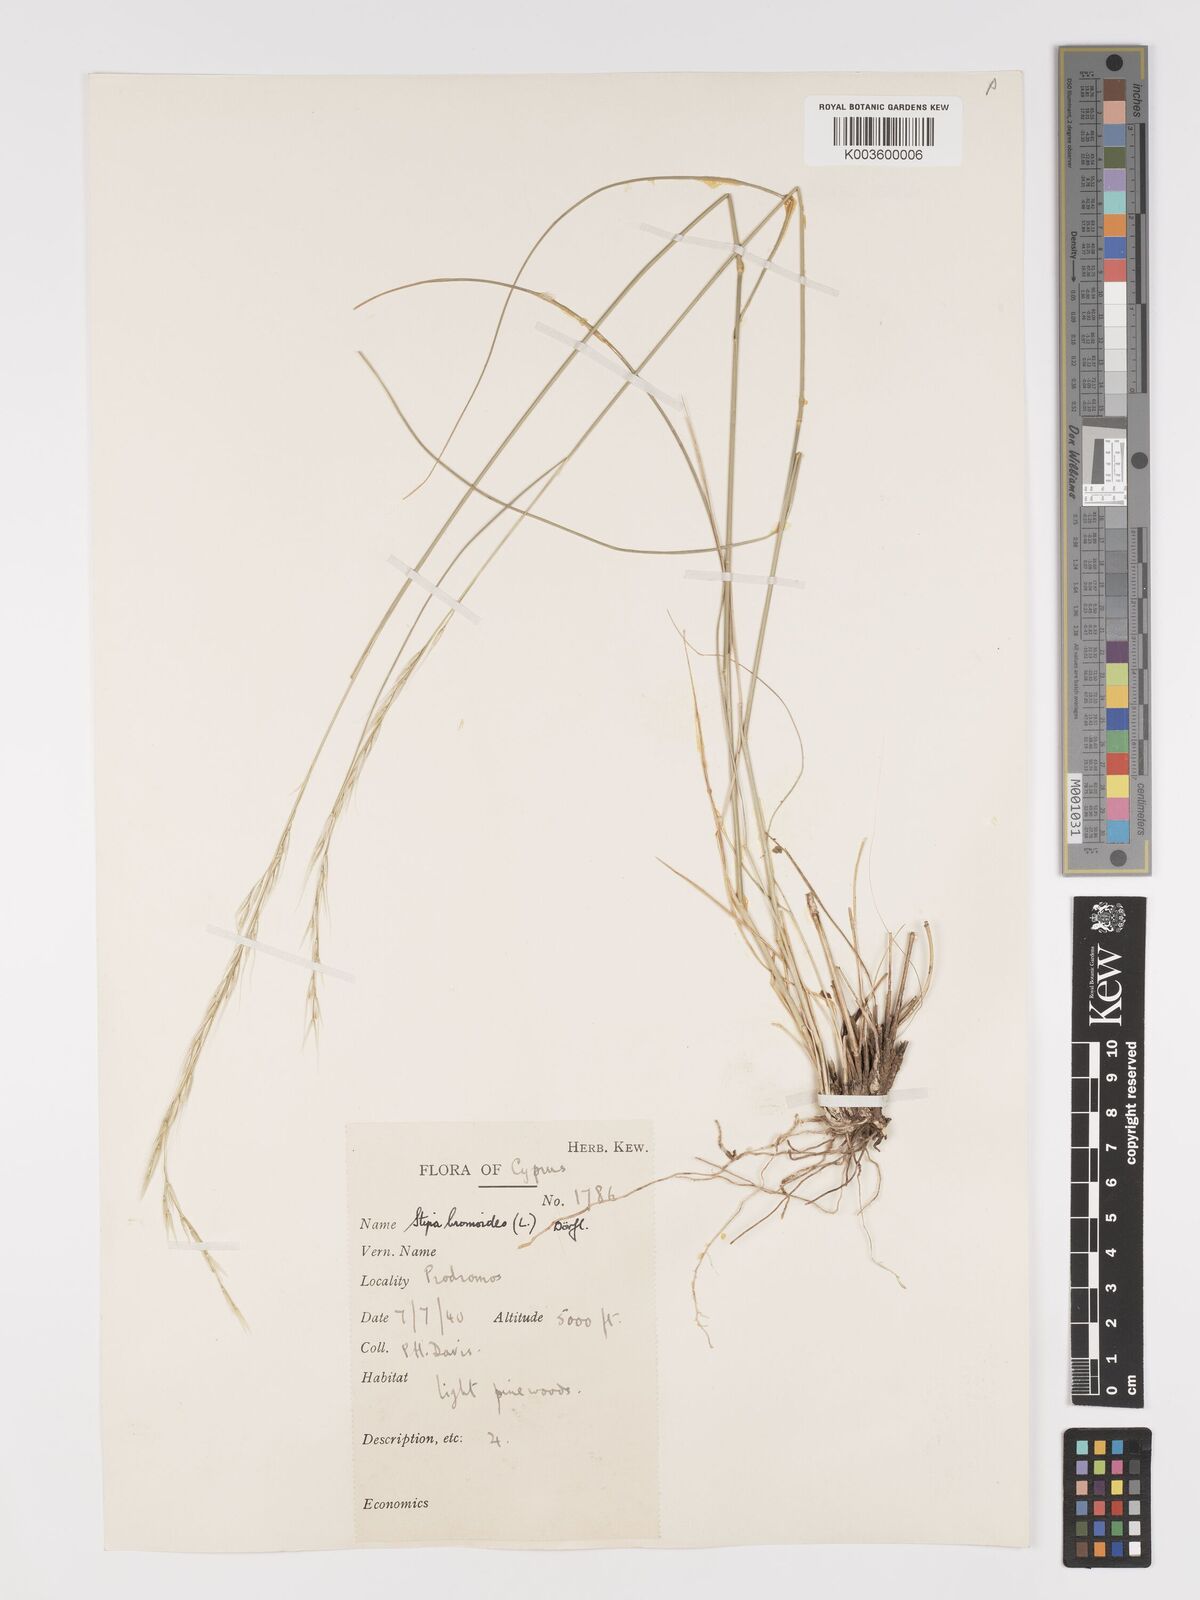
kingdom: Plantae
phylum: Tracheophyta
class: Liliopsida
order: Poales
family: Poaceae
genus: Achnatherum
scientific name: Achnatherum bromoides
